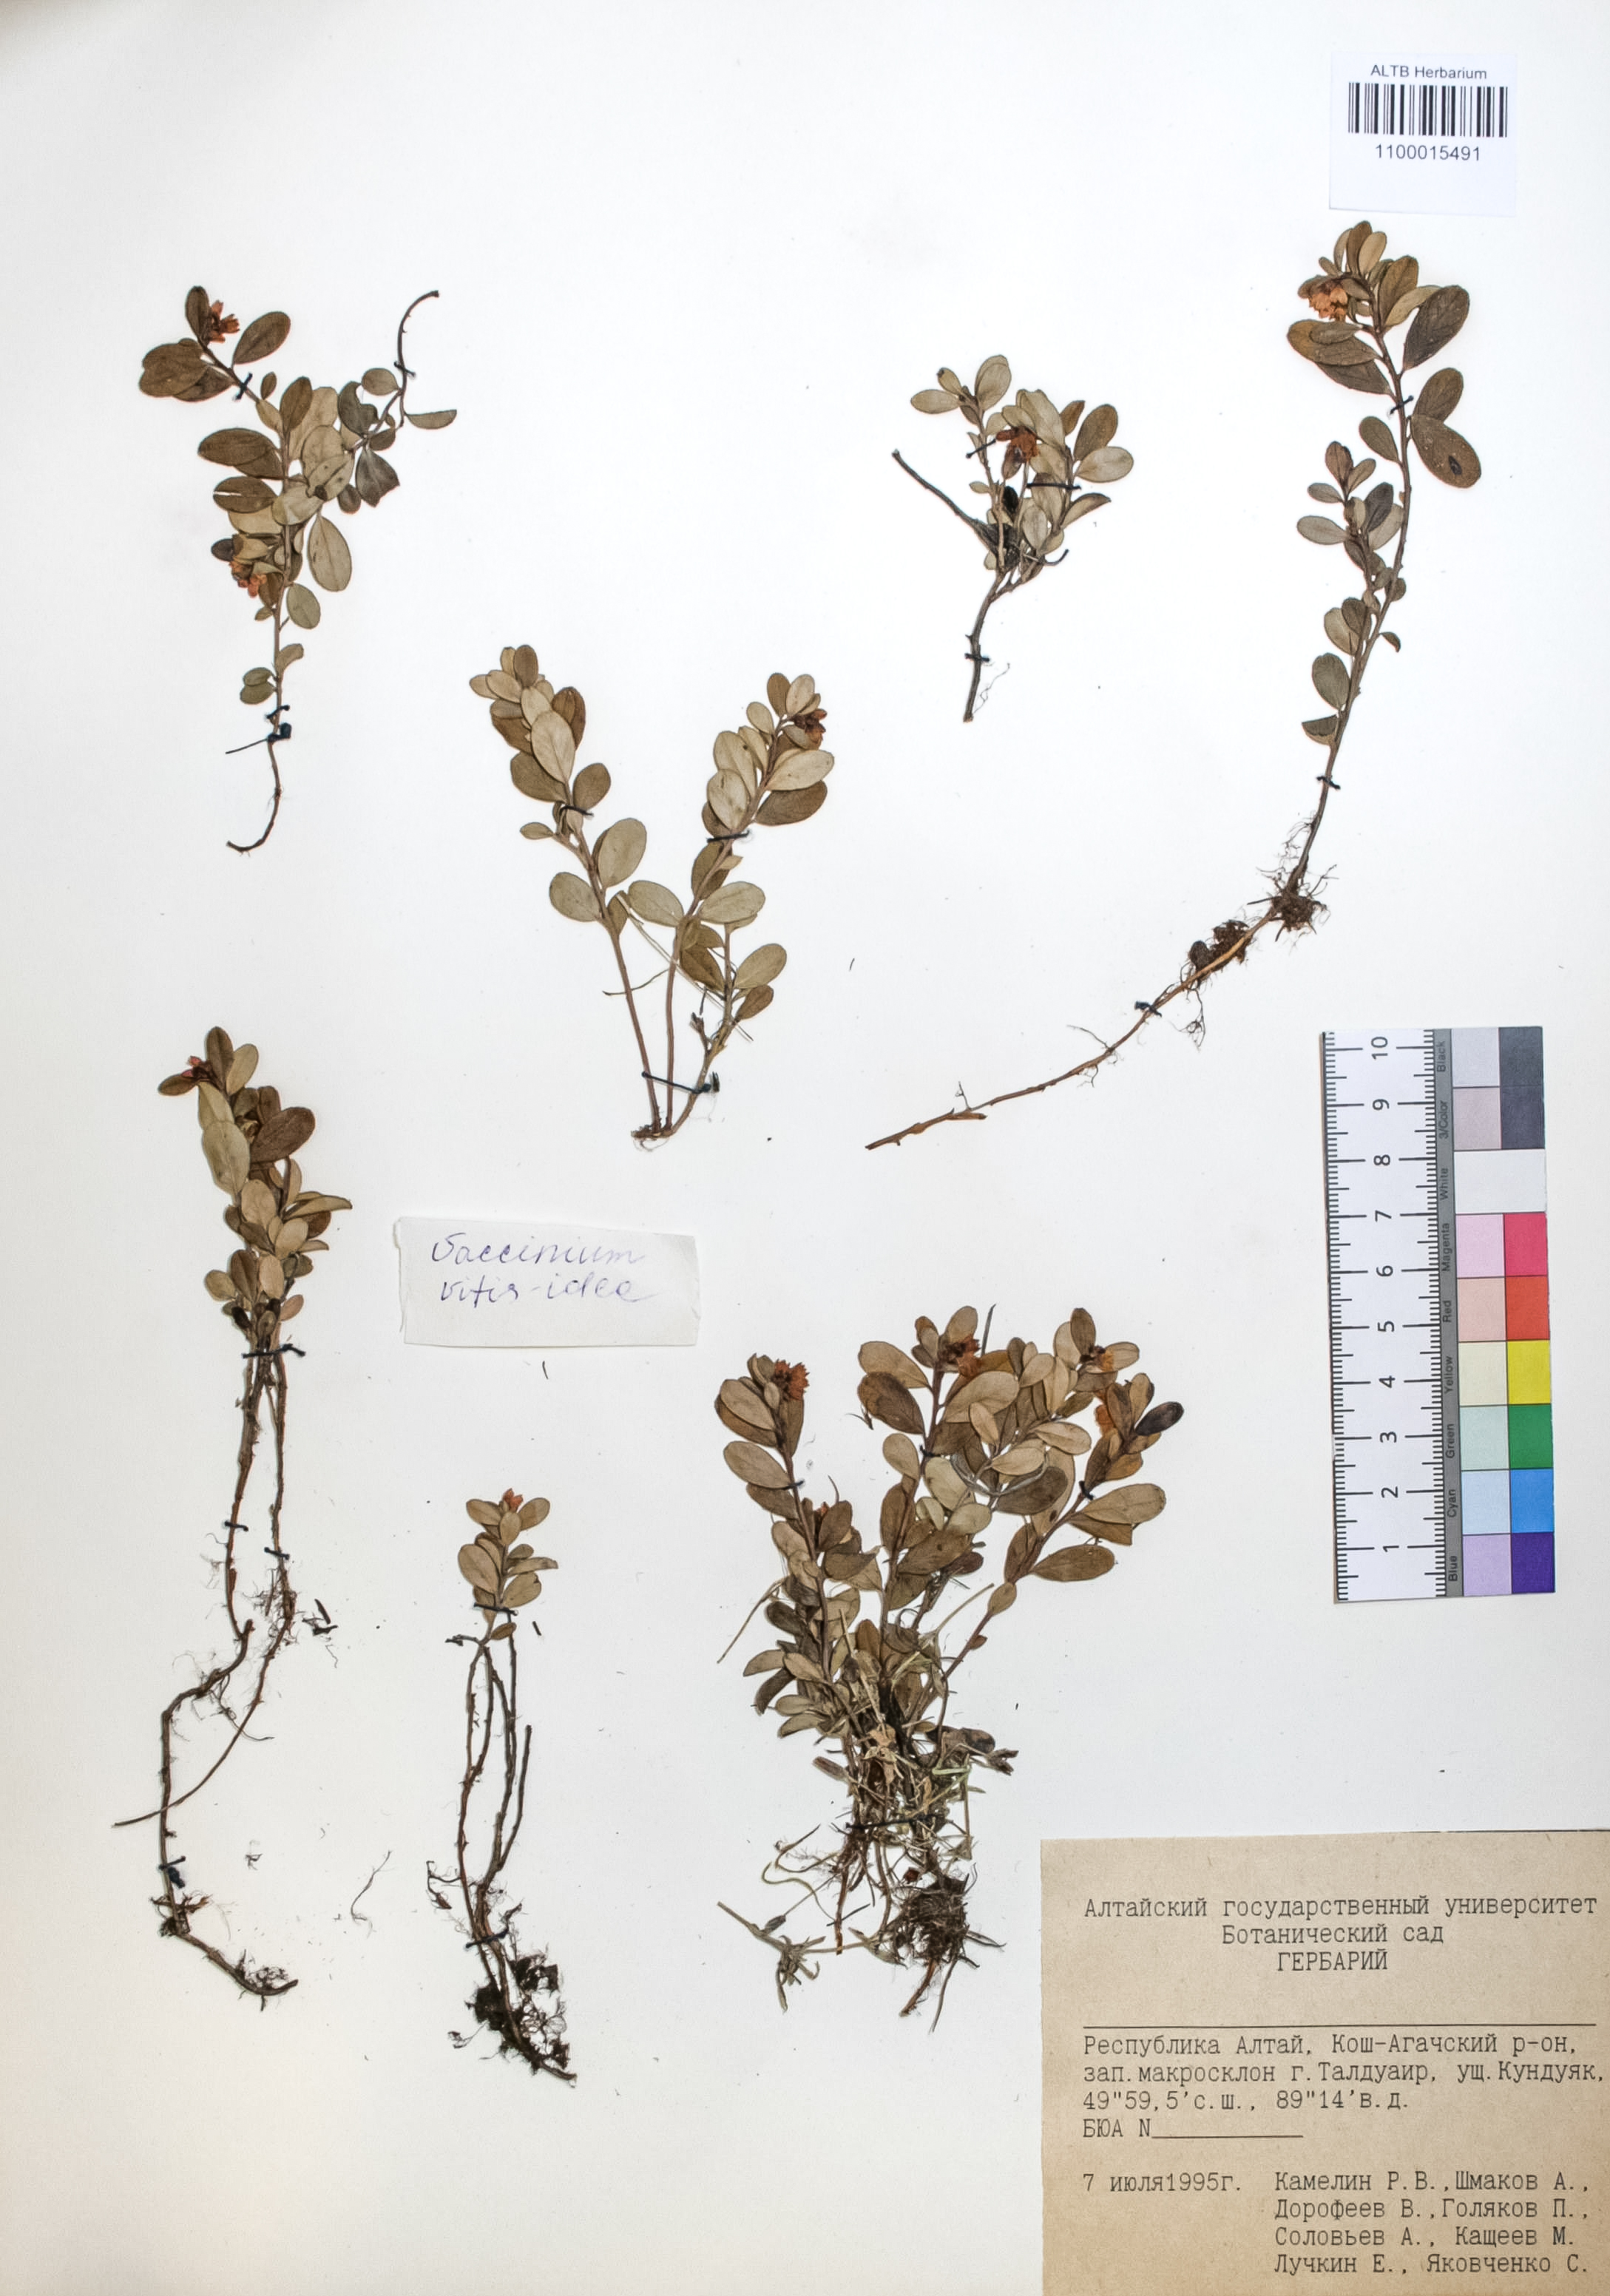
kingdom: Plantae
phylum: Tracheophyta
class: Magnoliopsida
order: Ericales
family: Ericaceae
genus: Vaccinium
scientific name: Vaccinium vitis-idaea
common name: Cowberry
